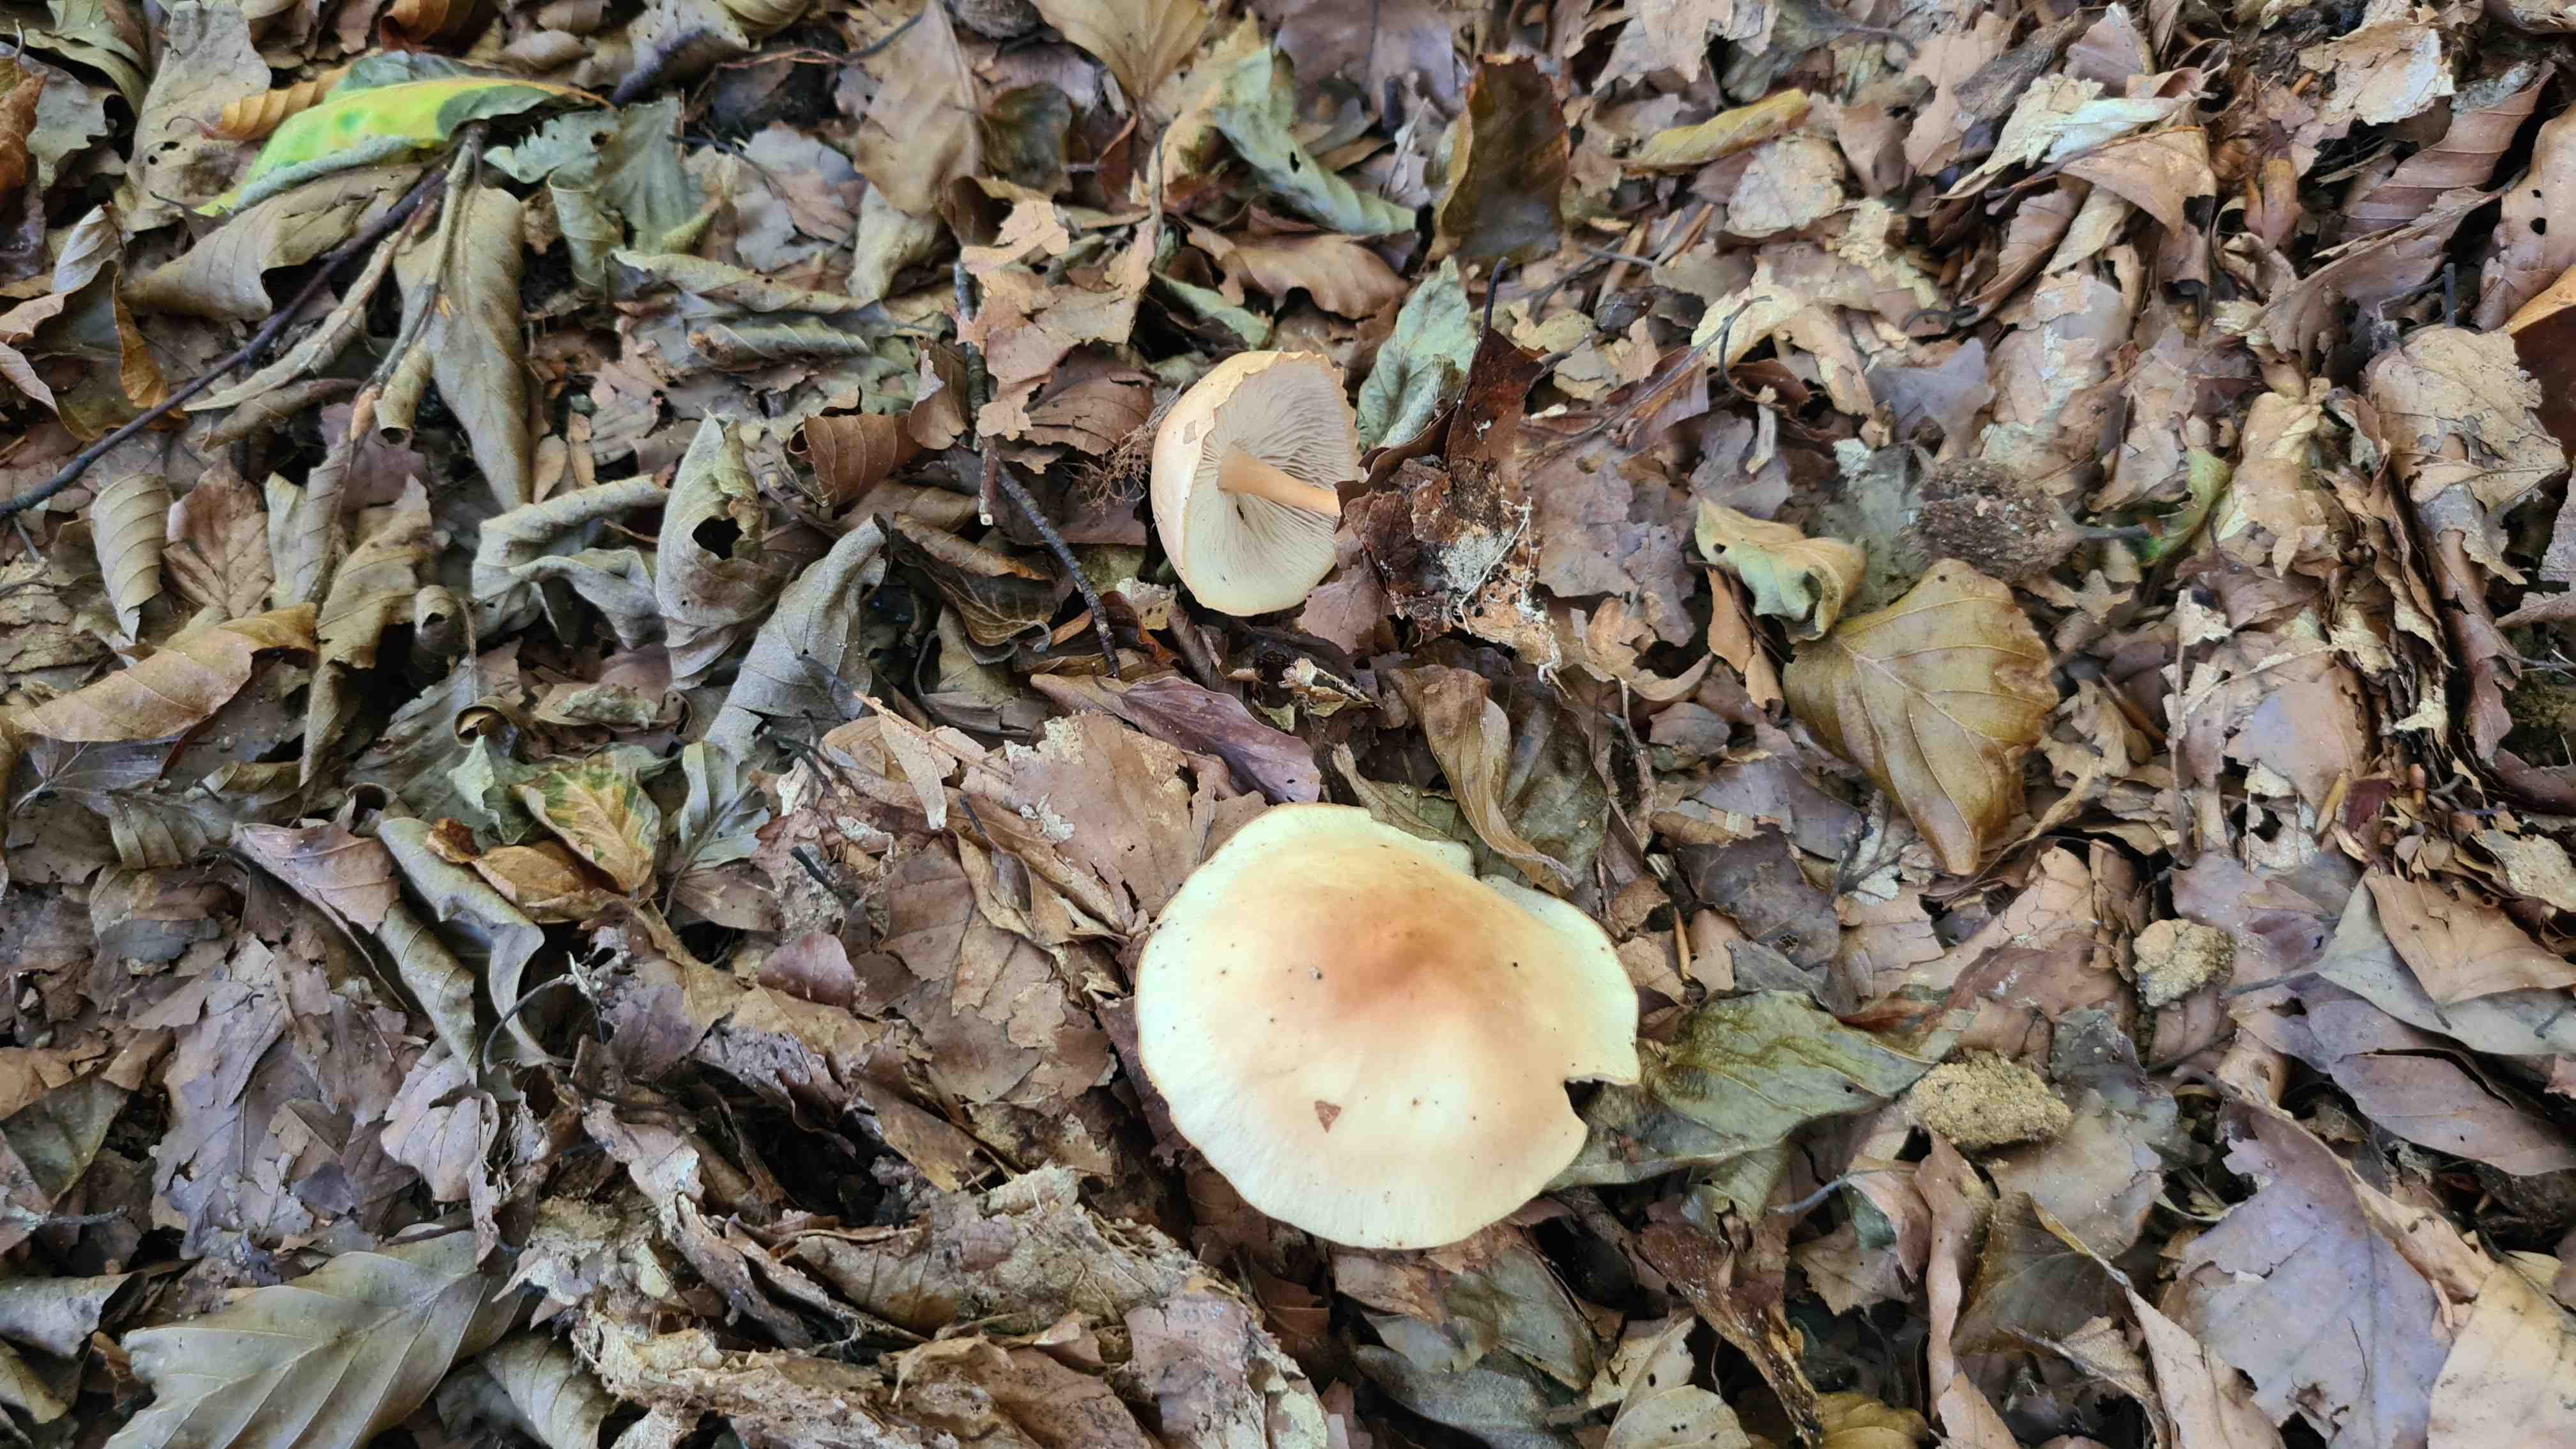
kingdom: Fungi
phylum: Basidiomycota
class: Agaricomycetes
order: Agaricales
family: Omphalotaceae
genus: Gymnopus
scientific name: Gymnopus dryophilus
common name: løv-fladhat
